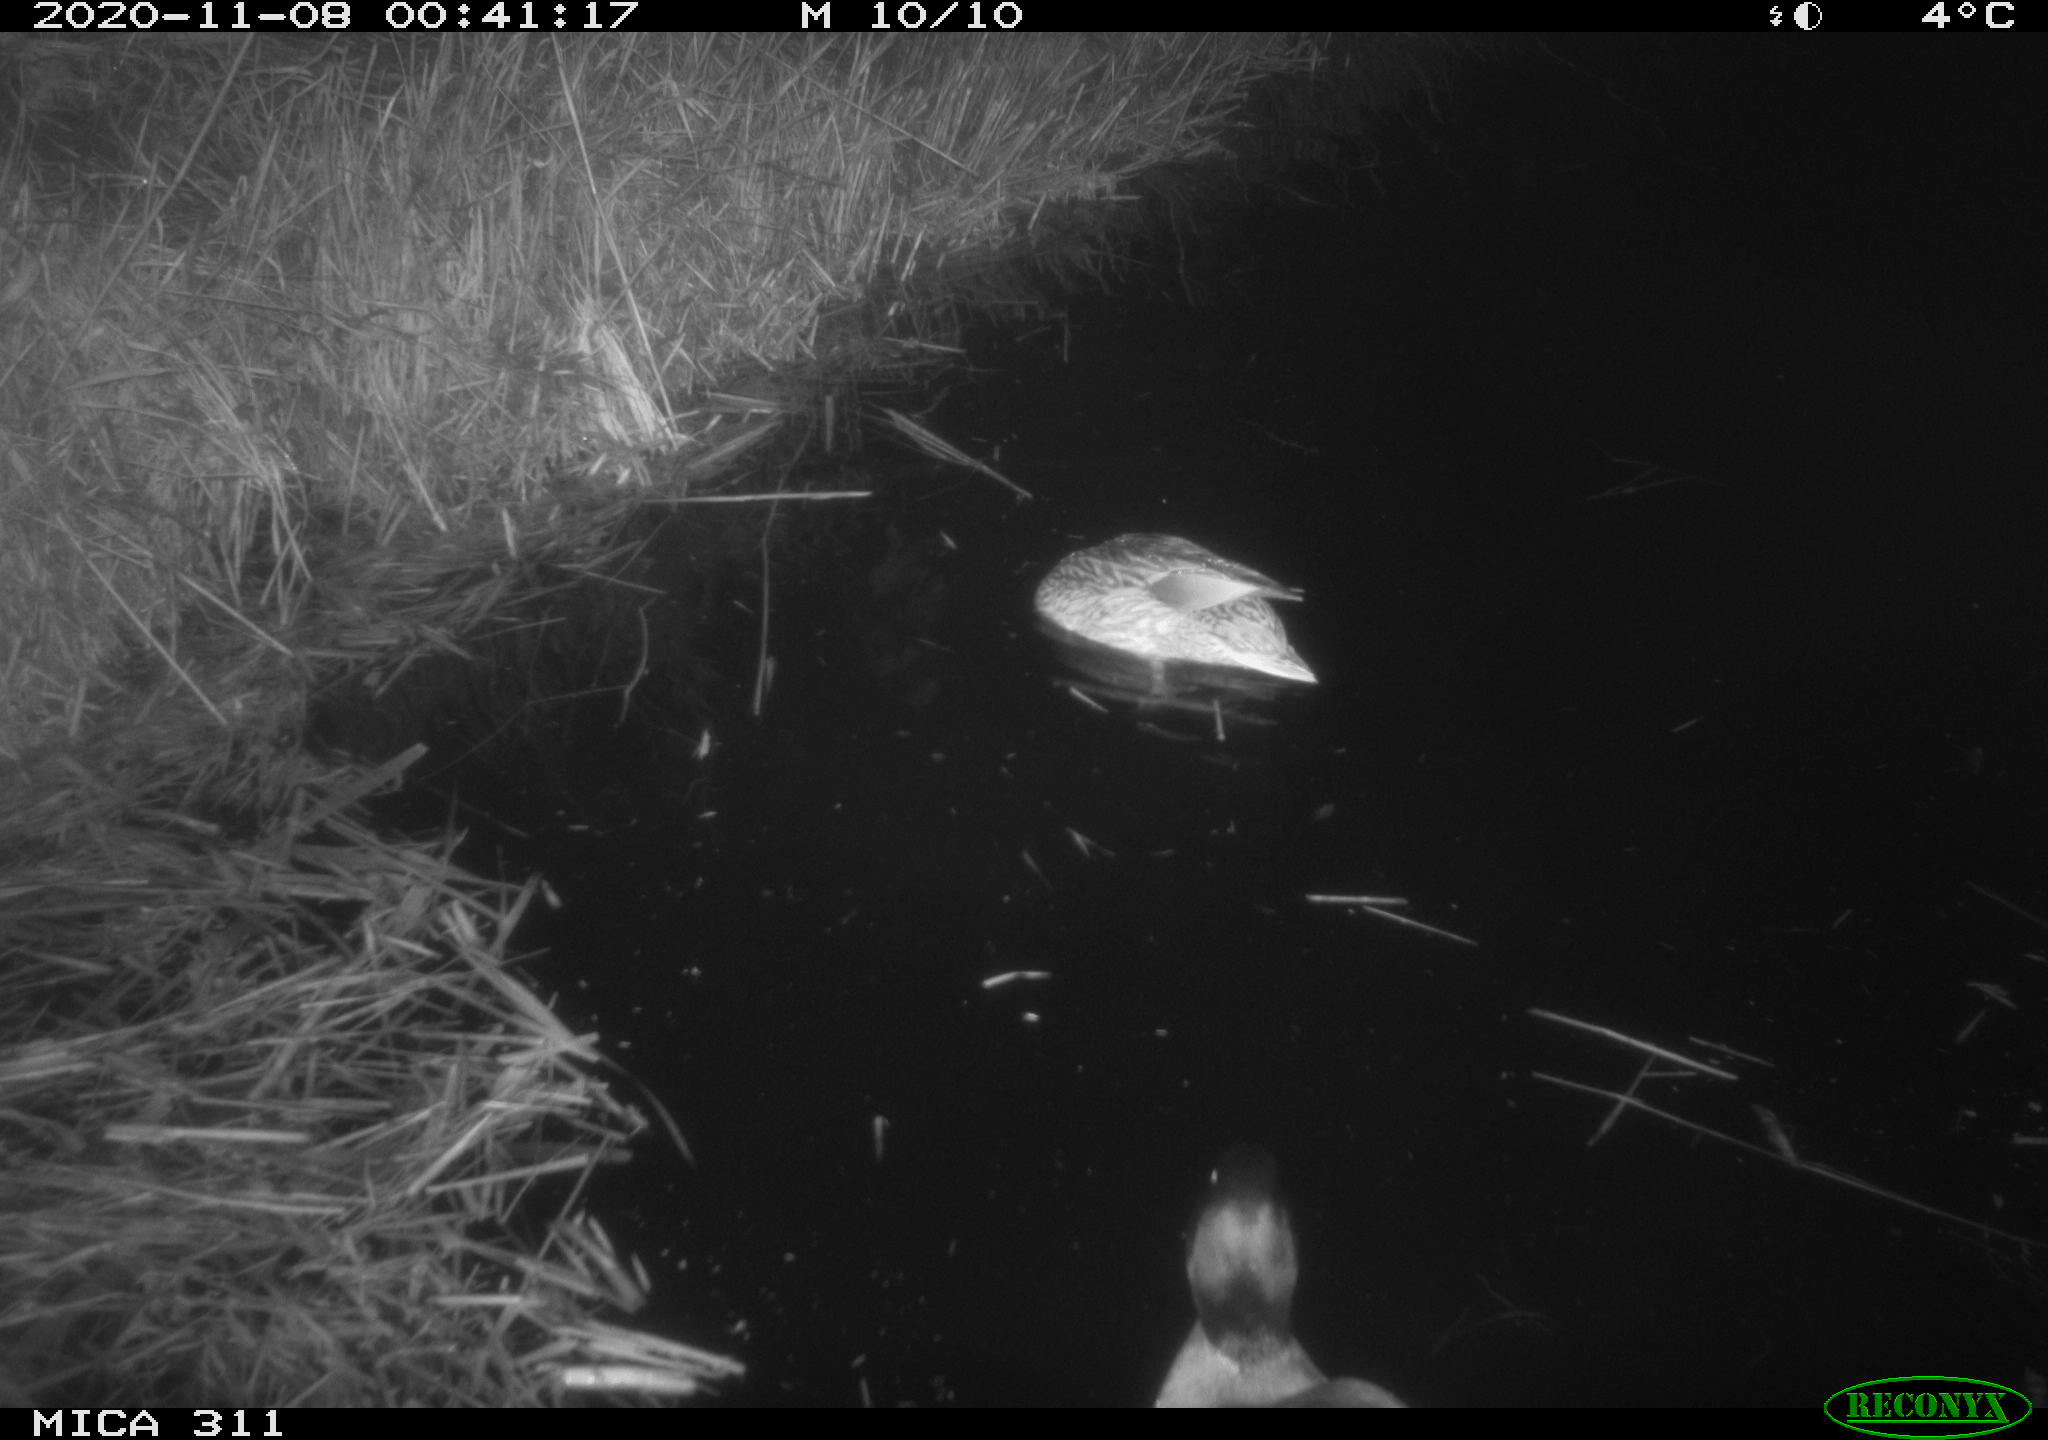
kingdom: Animalia
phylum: Chordata
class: Aves
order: Anseriformes
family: Anatidae
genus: Anas
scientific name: Anas platyrhynchos
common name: Mallard
